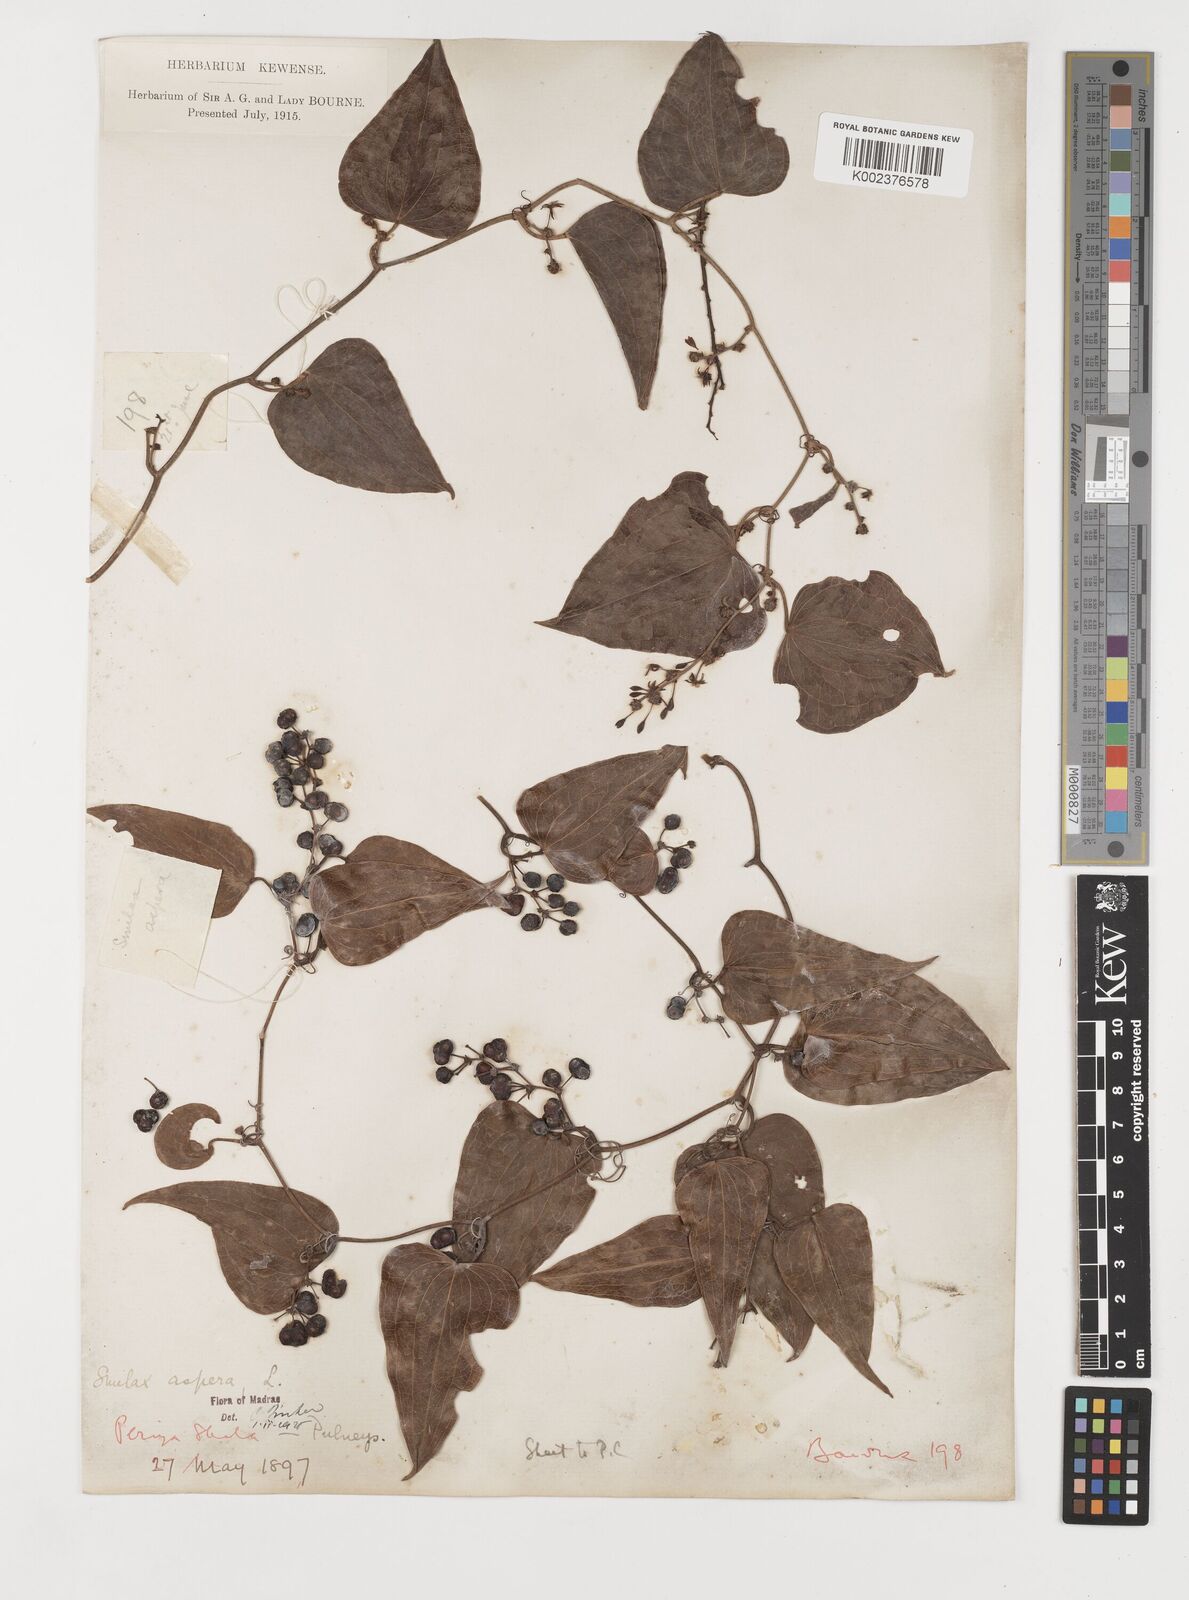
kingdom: Plantae
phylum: Tracheophyta
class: Liliopsida
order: Liliales
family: Smilacaceae
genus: Smilax
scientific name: Smilax aspera
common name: Common smilax
